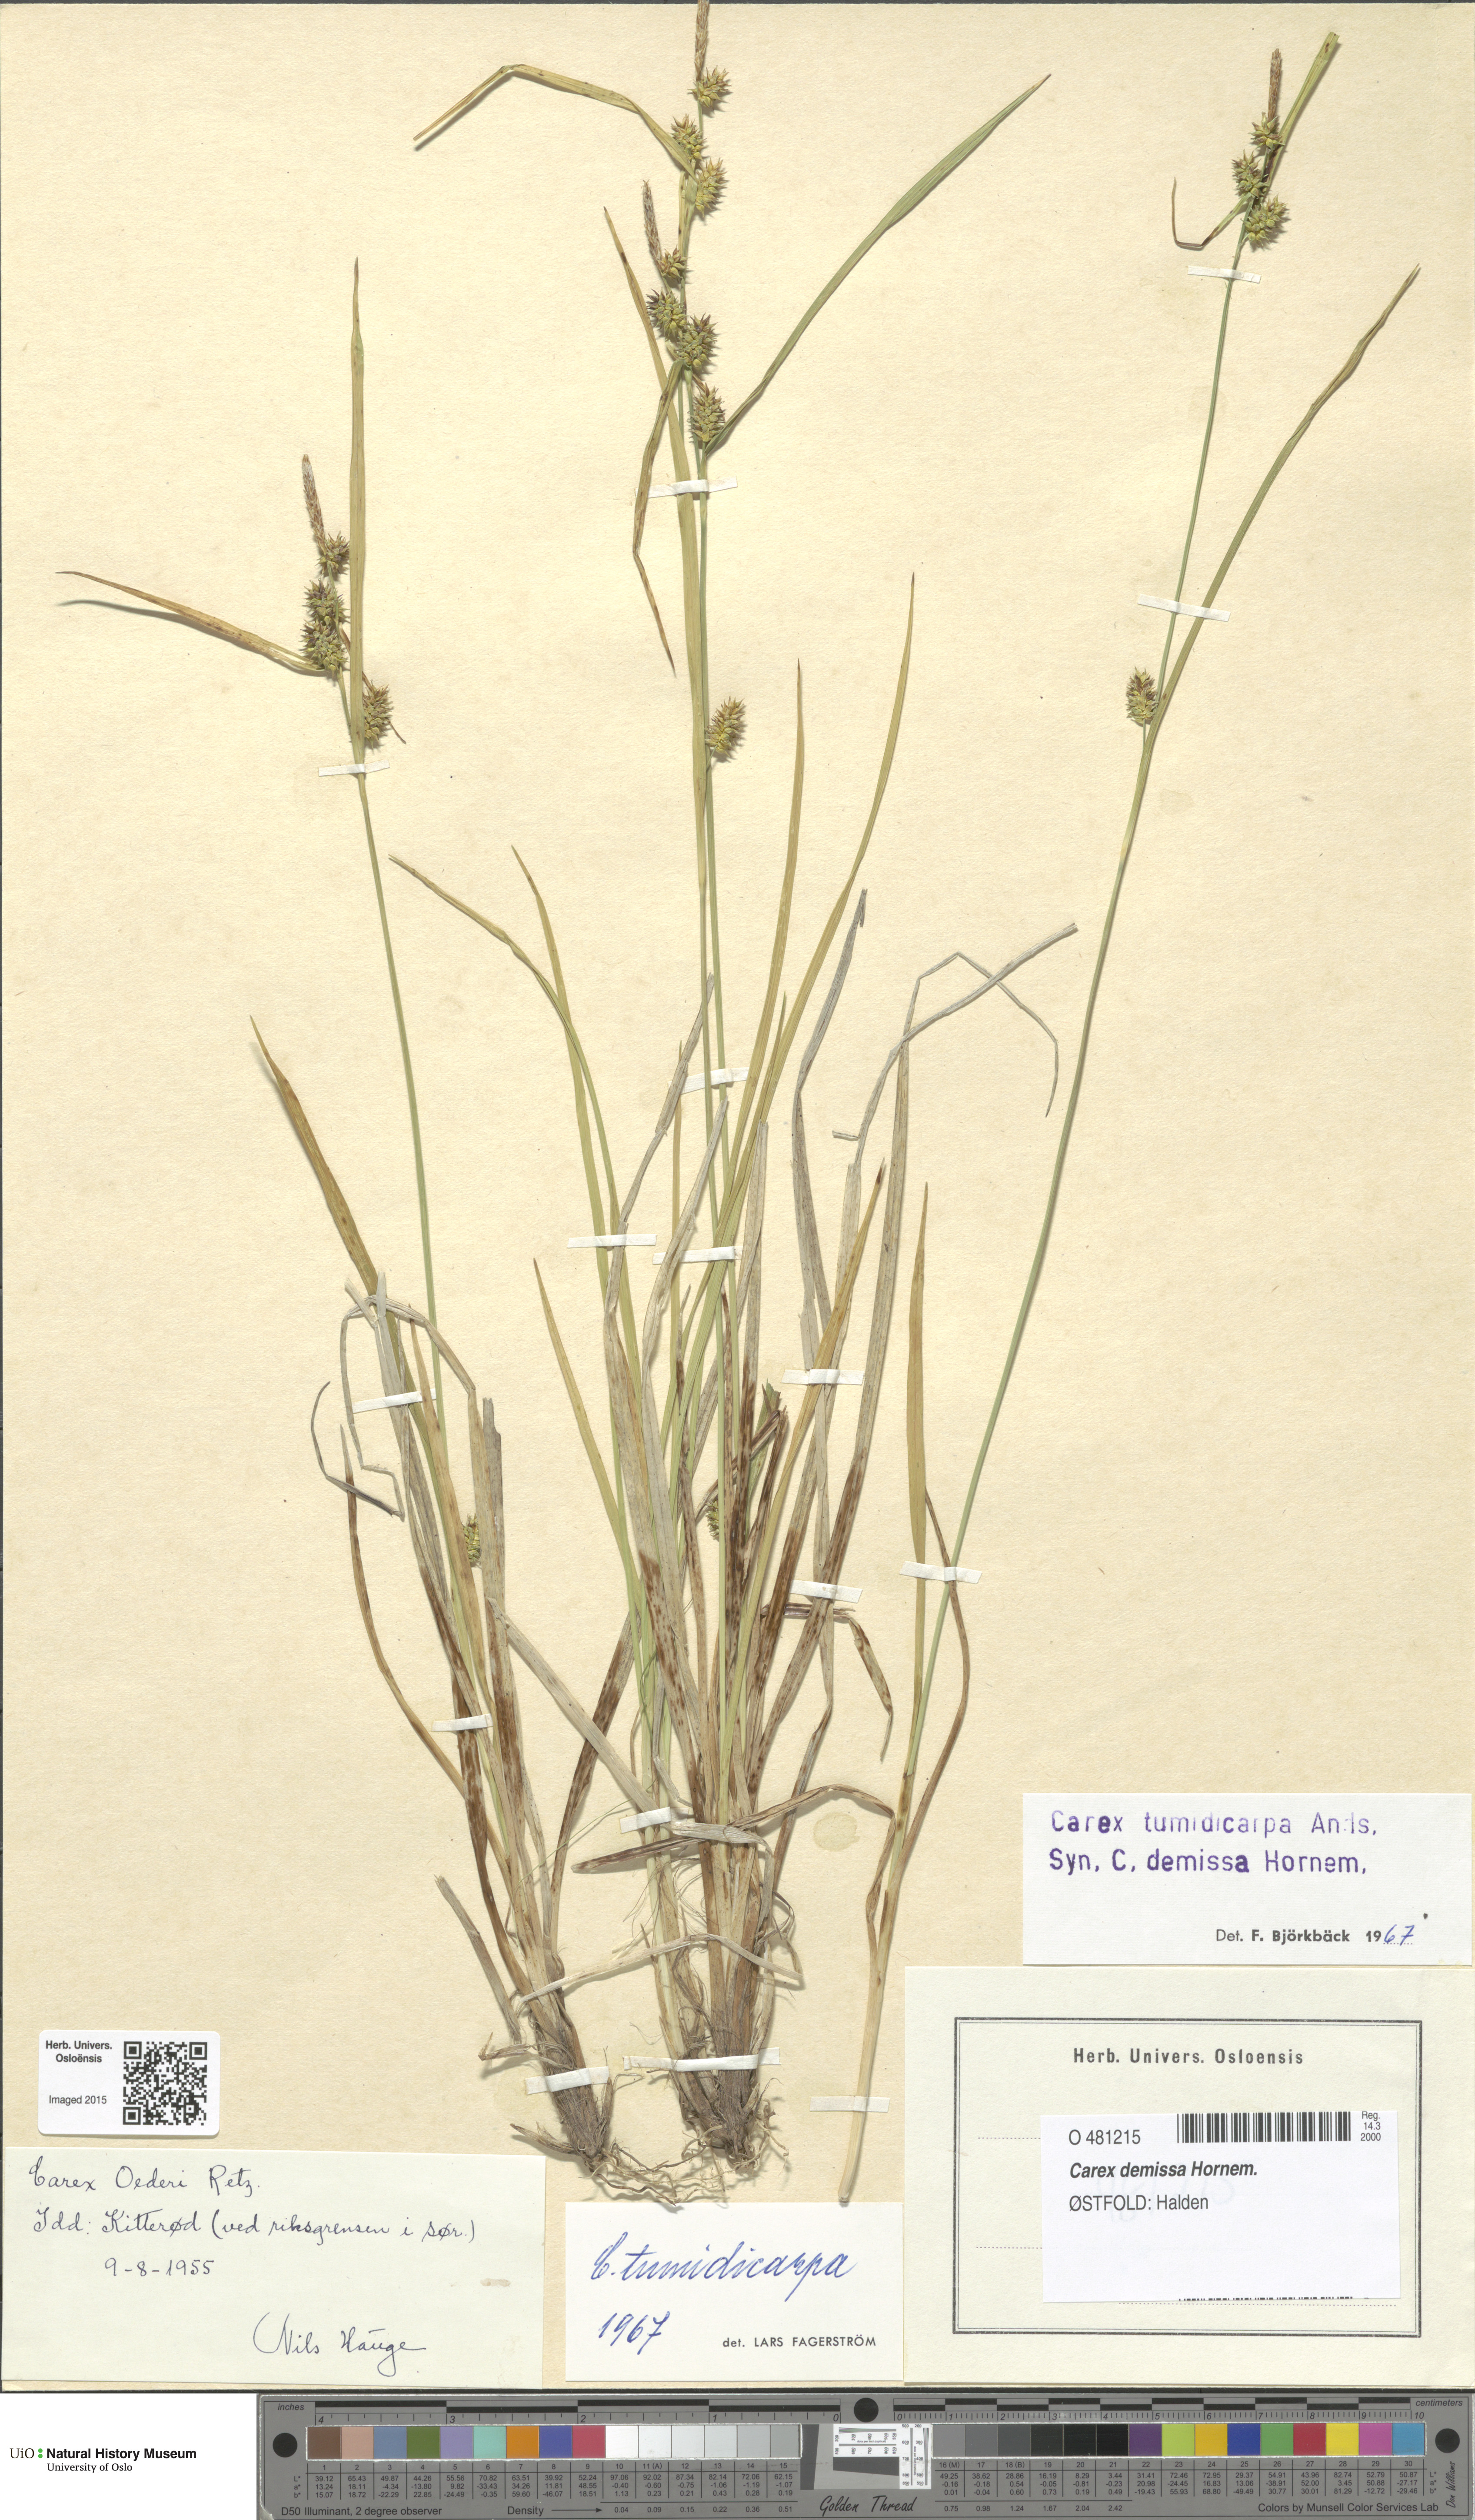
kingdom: Plantae
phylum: Tracheophyta
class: Liliopsida
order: Poales
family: Cyperaceae
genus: Carex
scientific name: Carex demissa
